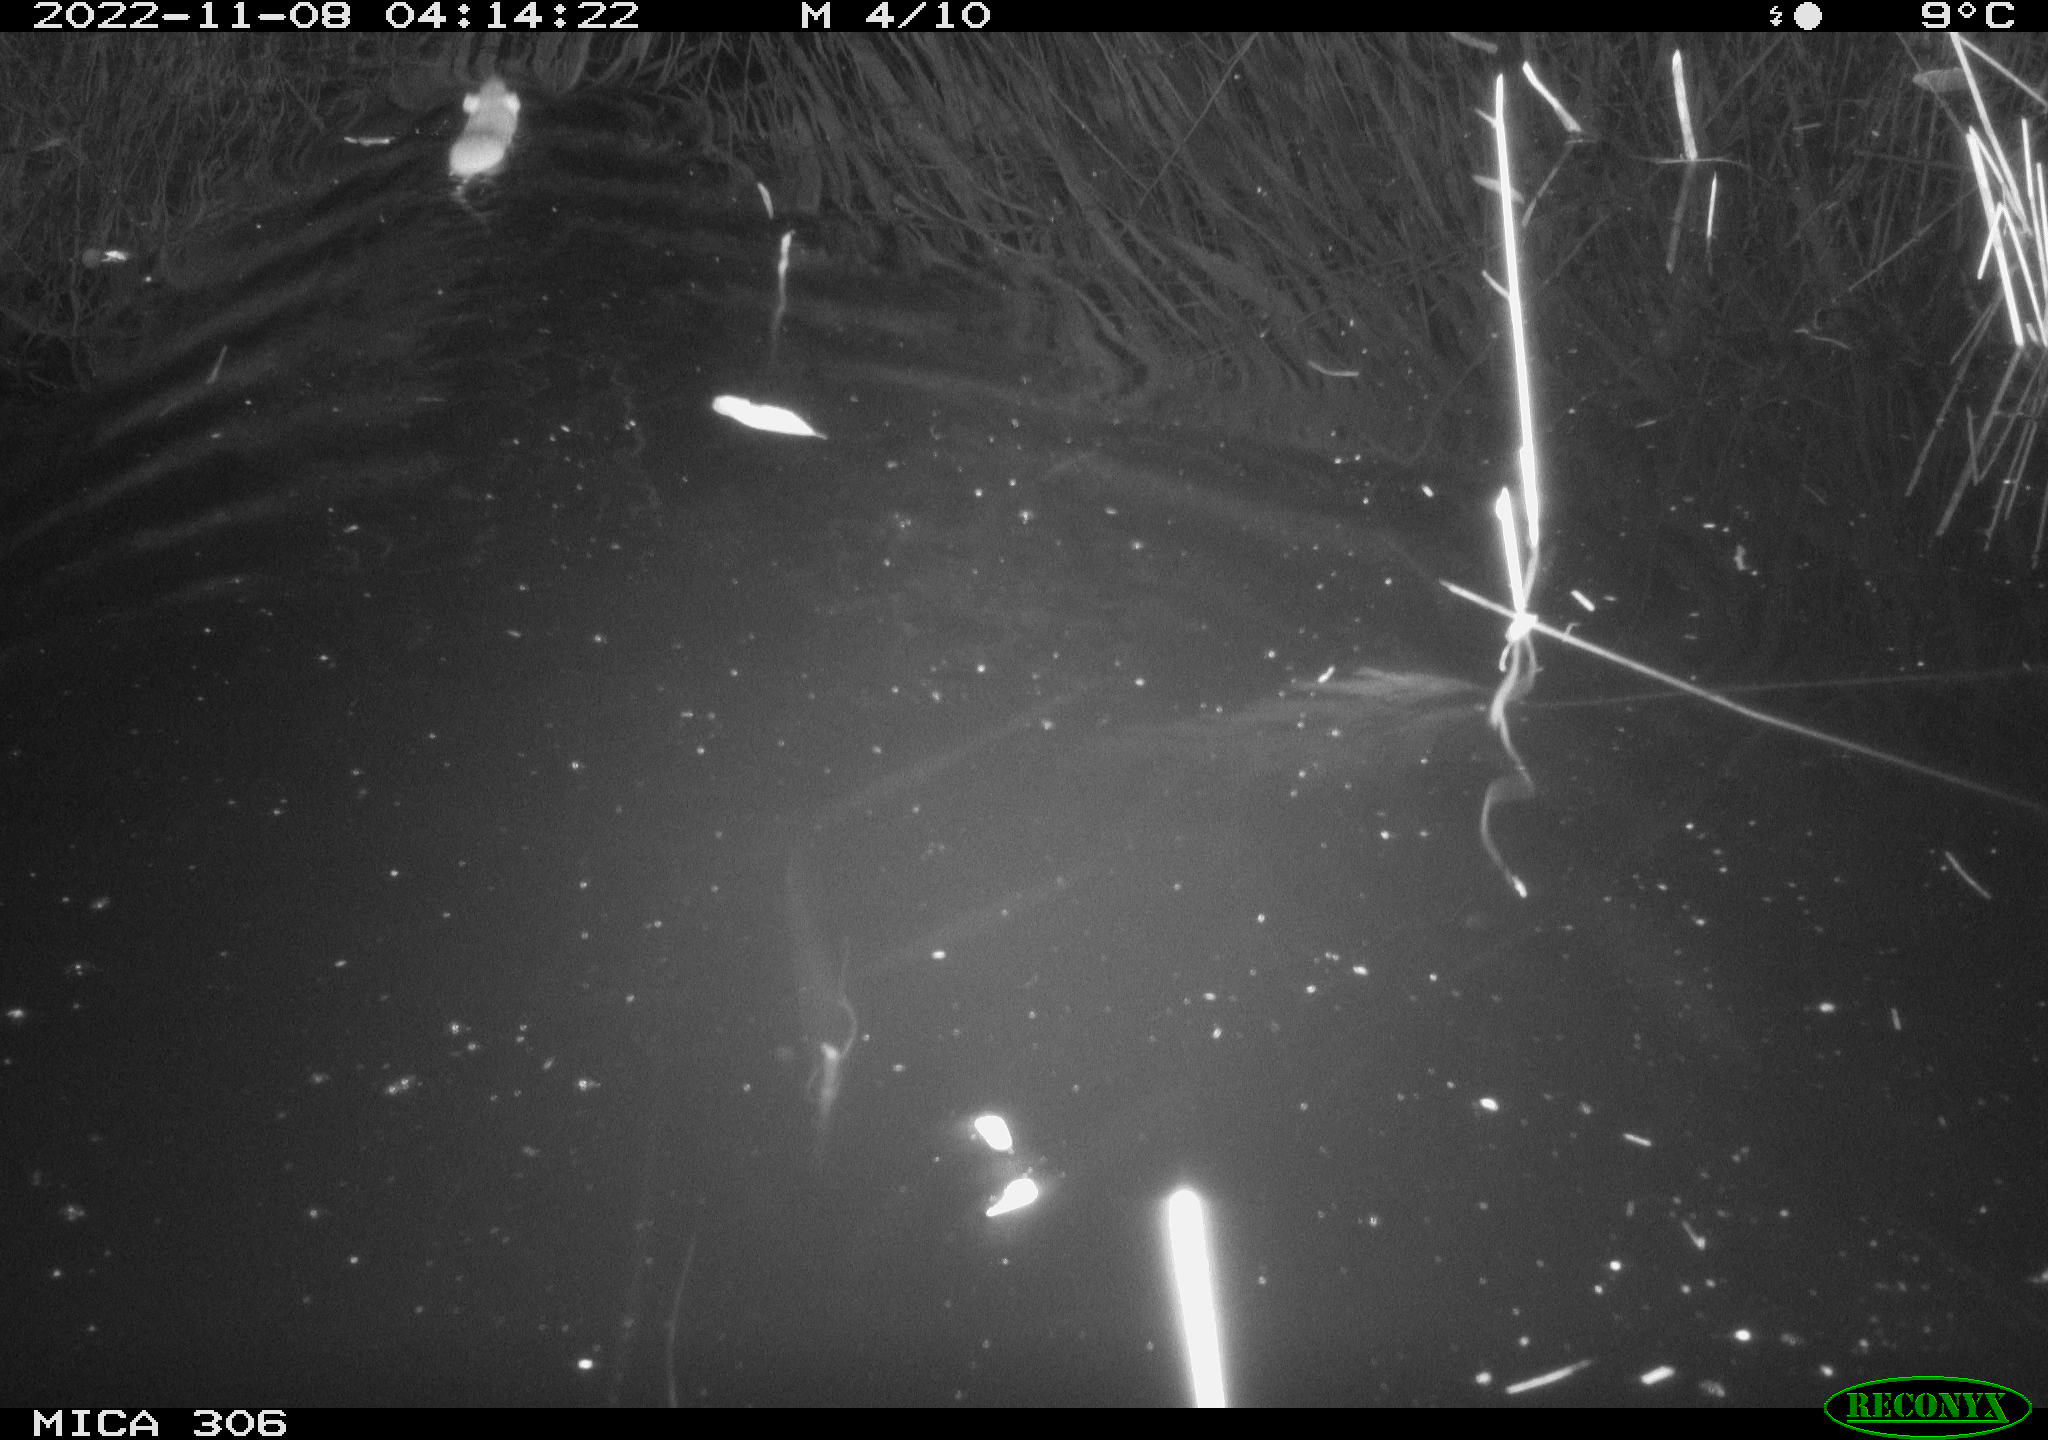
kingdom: Animalia
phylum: Chordata
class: Mammalia
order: Rodentia
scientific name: Rodentia
